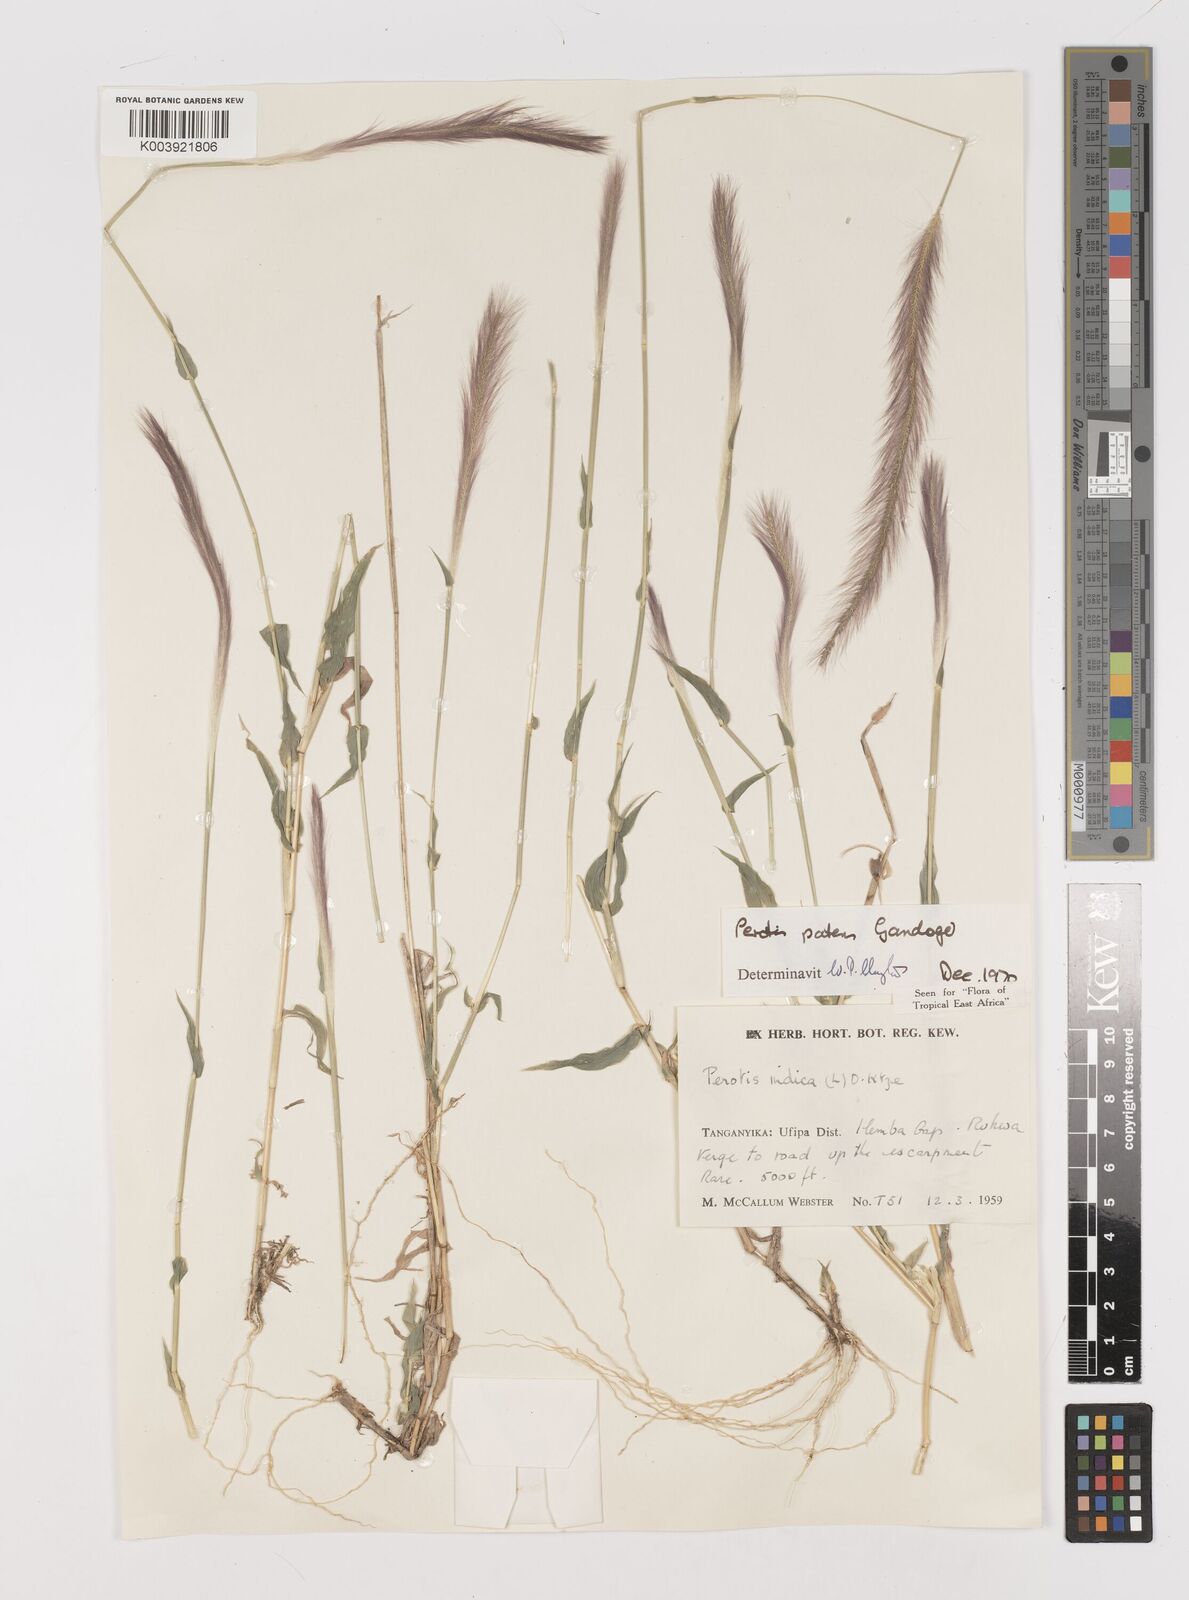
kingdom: Plantae
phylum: Tracheophyta
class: Liliopsida
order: Poales
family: Poaceae
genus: Perotis
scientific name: Perotis patens
